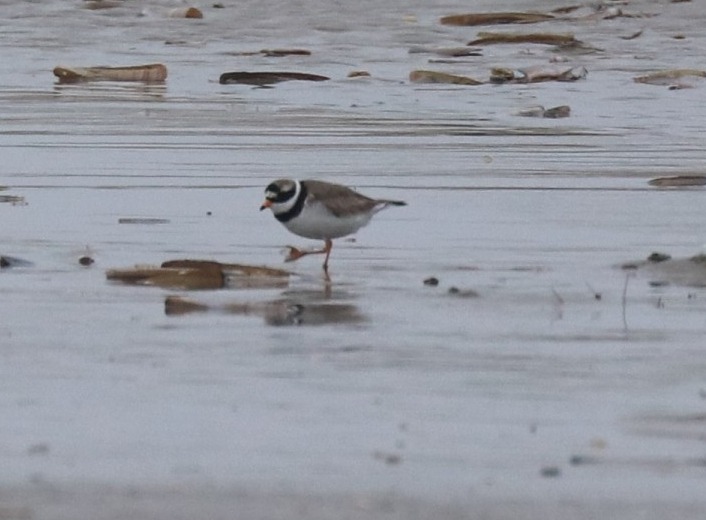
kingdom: Animalia
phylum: Chordata
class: Aves
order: Charadriiformes
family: Charadriidae
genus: Charadrius
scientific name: Charadrius hiaticula
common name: Stor præstekrave
